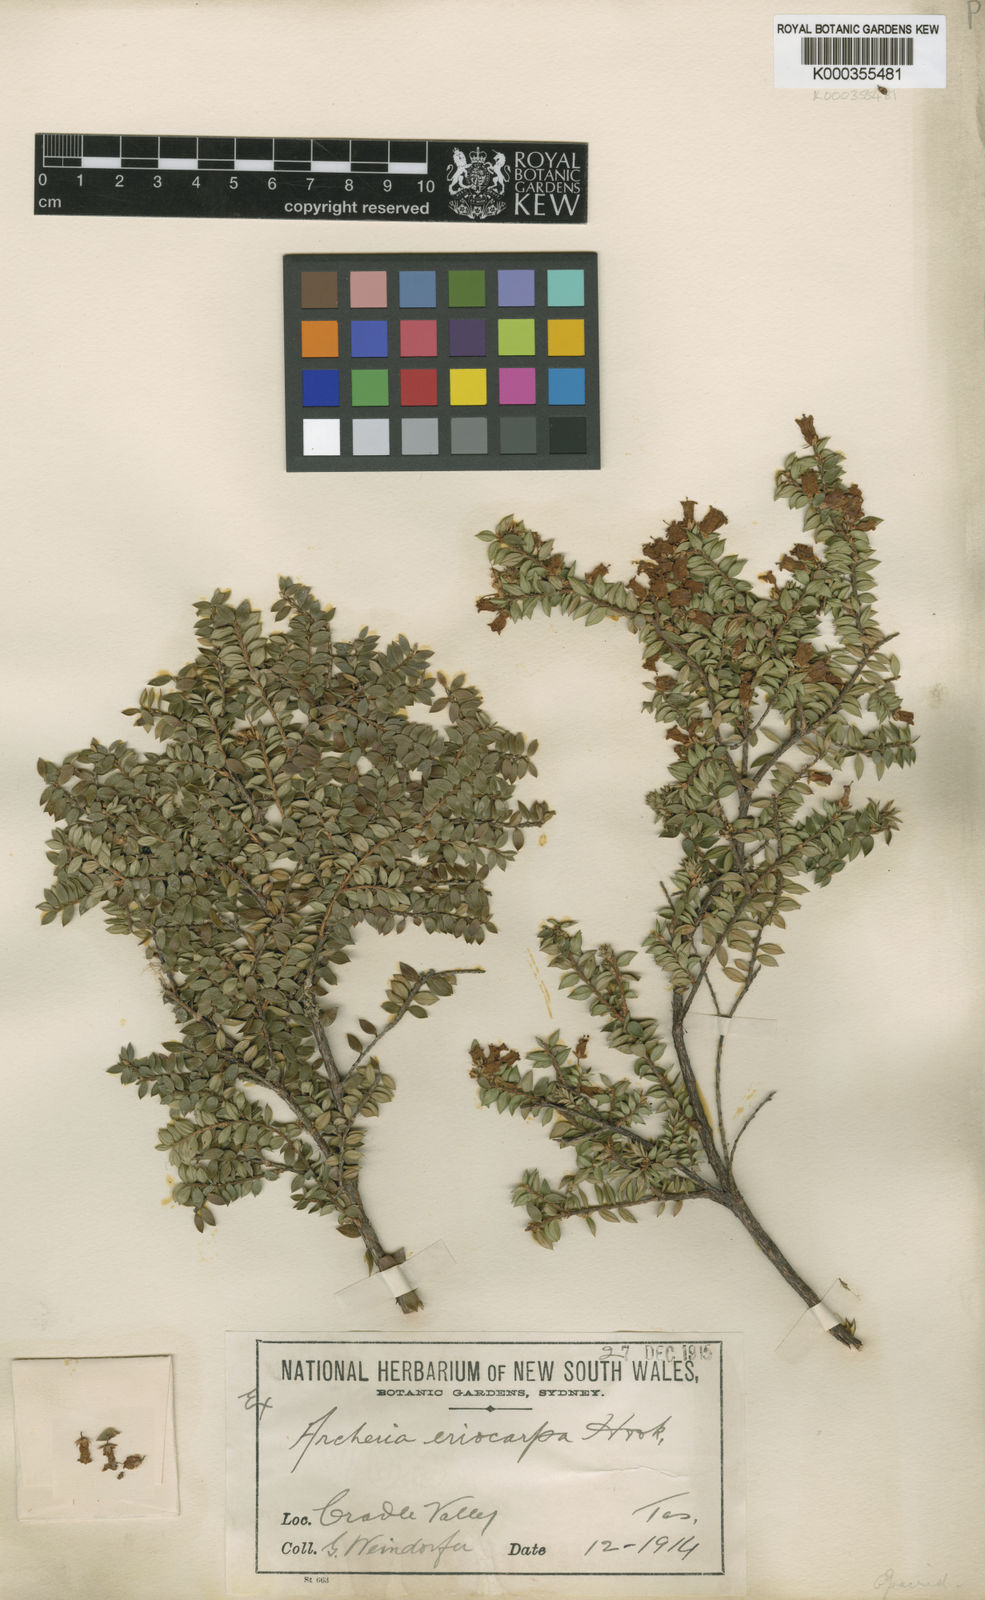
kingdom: Plantae
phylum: Tracheophyta
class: Magnoliopsida
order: Ericales
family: Ericaceae
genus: Archeria
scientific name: Archeria eriocarpa
